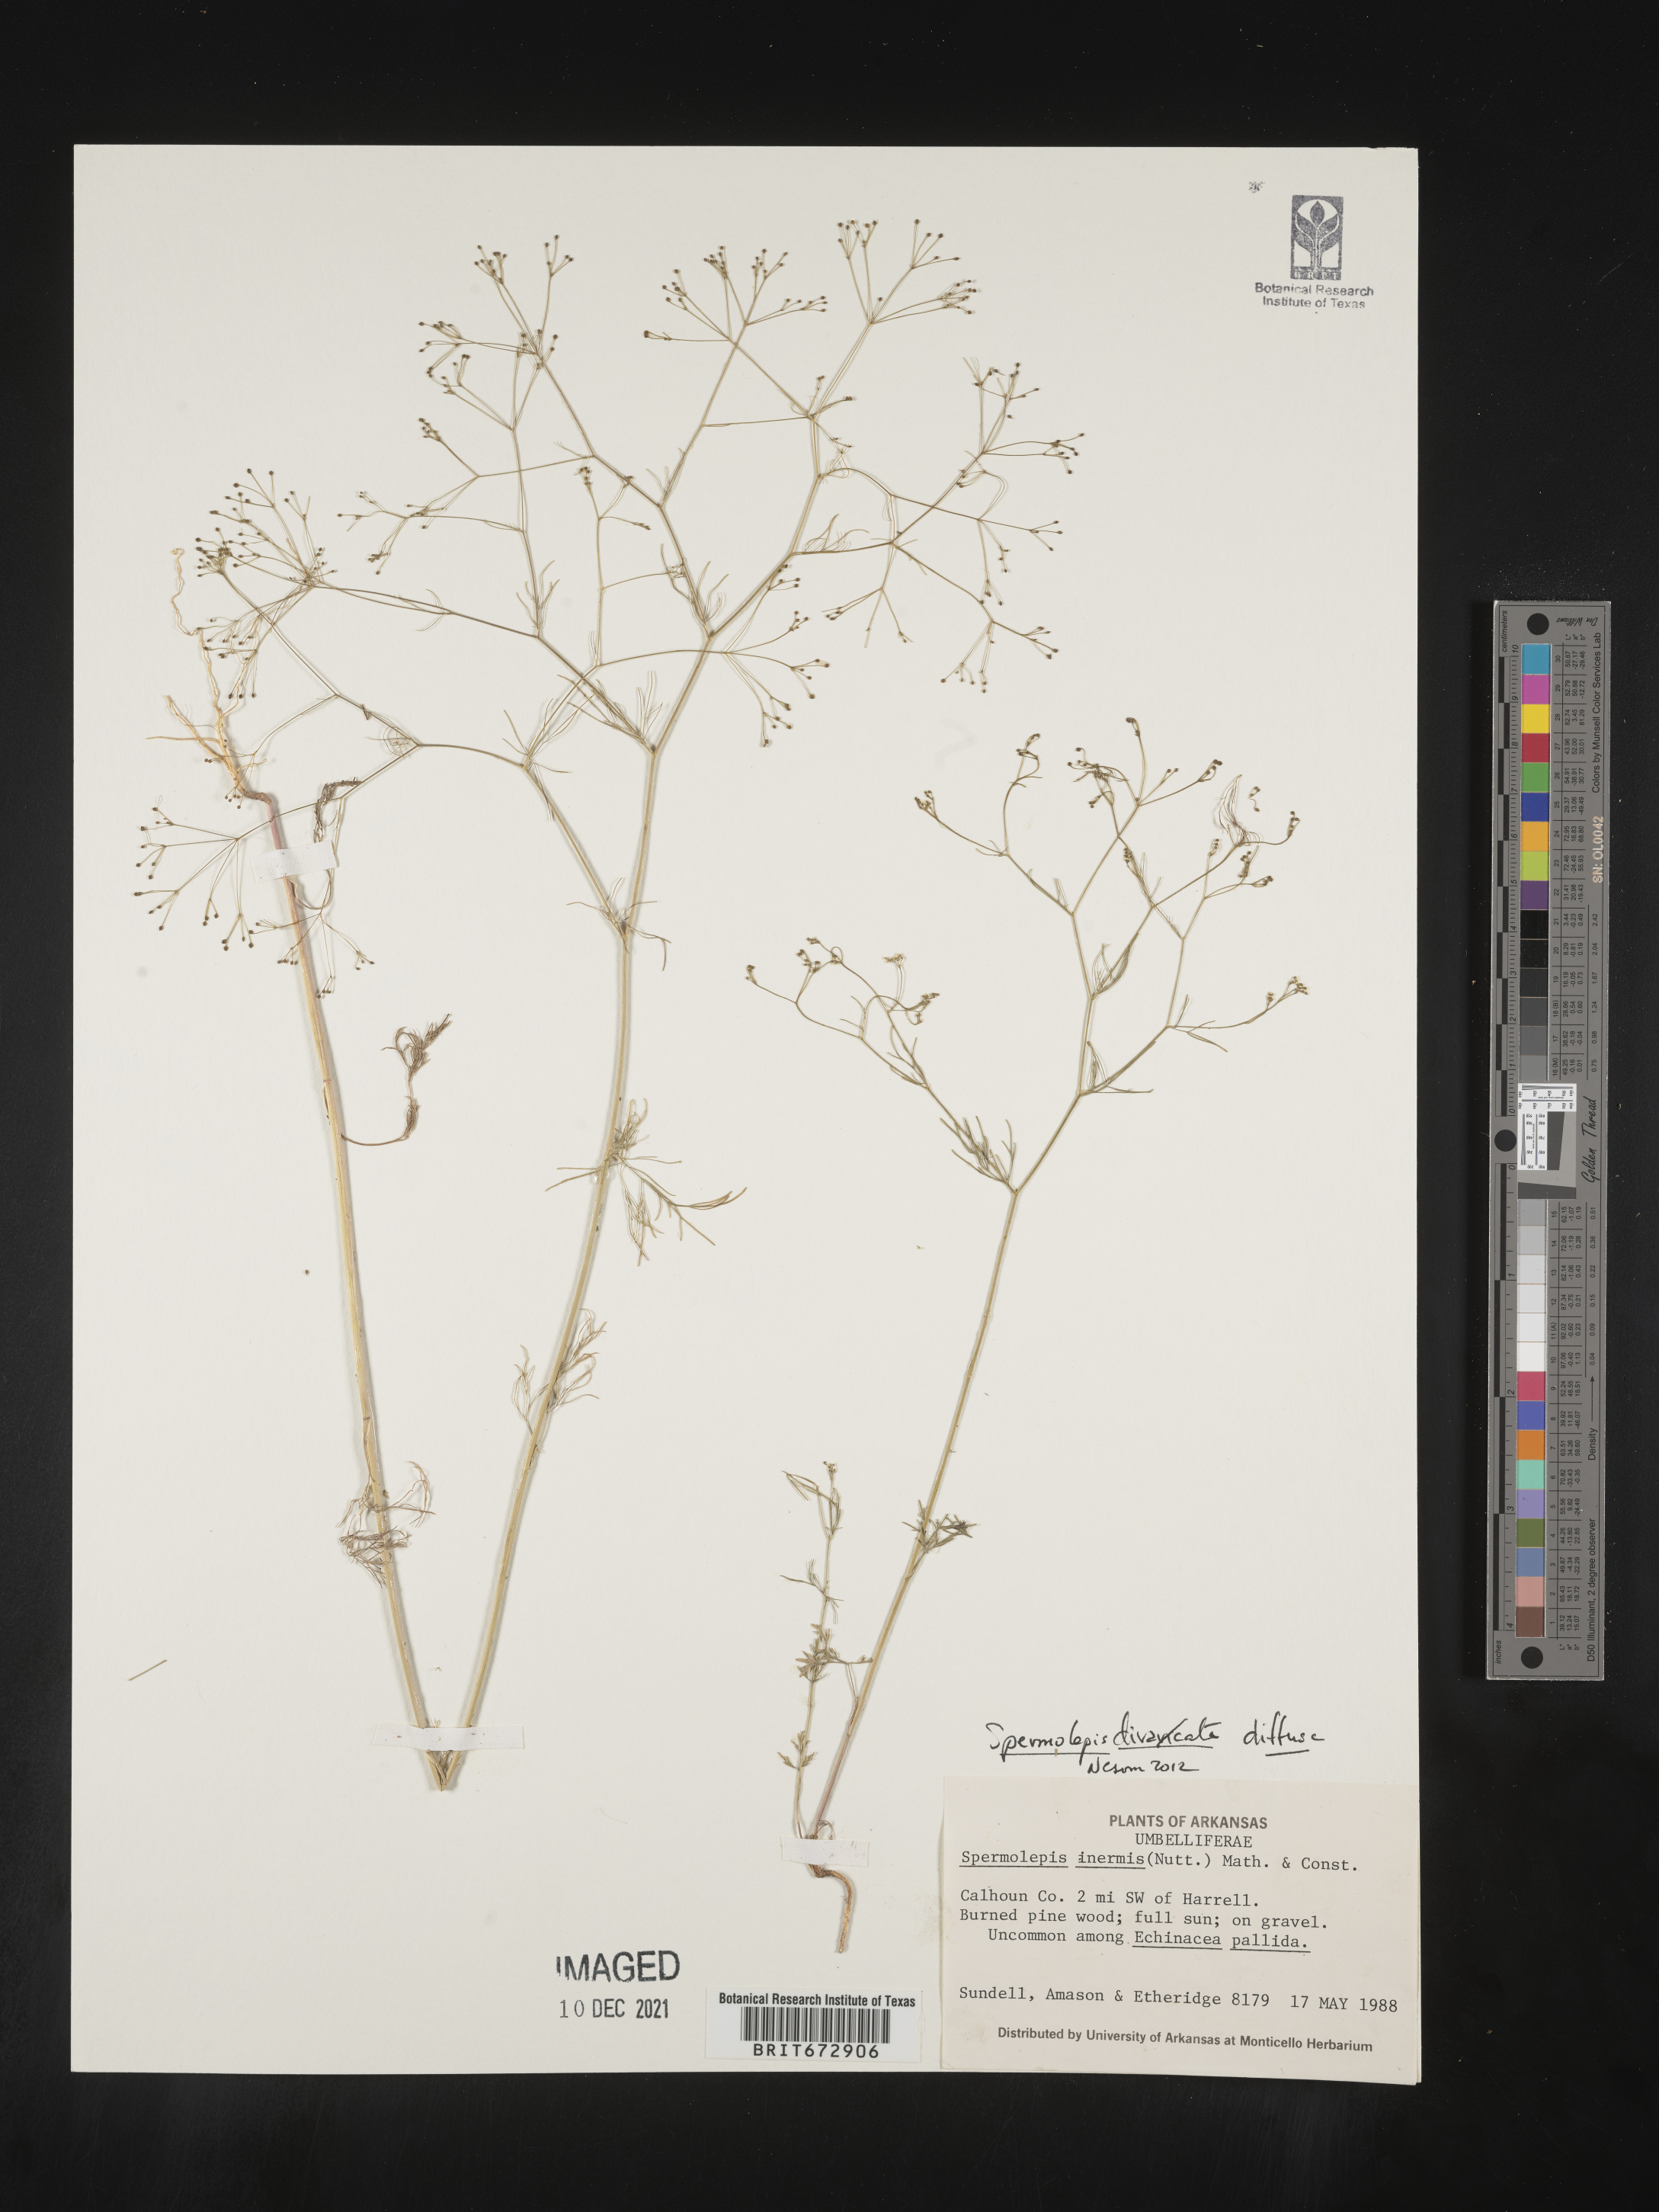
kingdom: Plantae
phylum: Tracheophyta
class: Magnoliopsida
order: Apiales
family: Apiaceae
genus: Spermolepis
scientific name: Spermolepis diffusa
